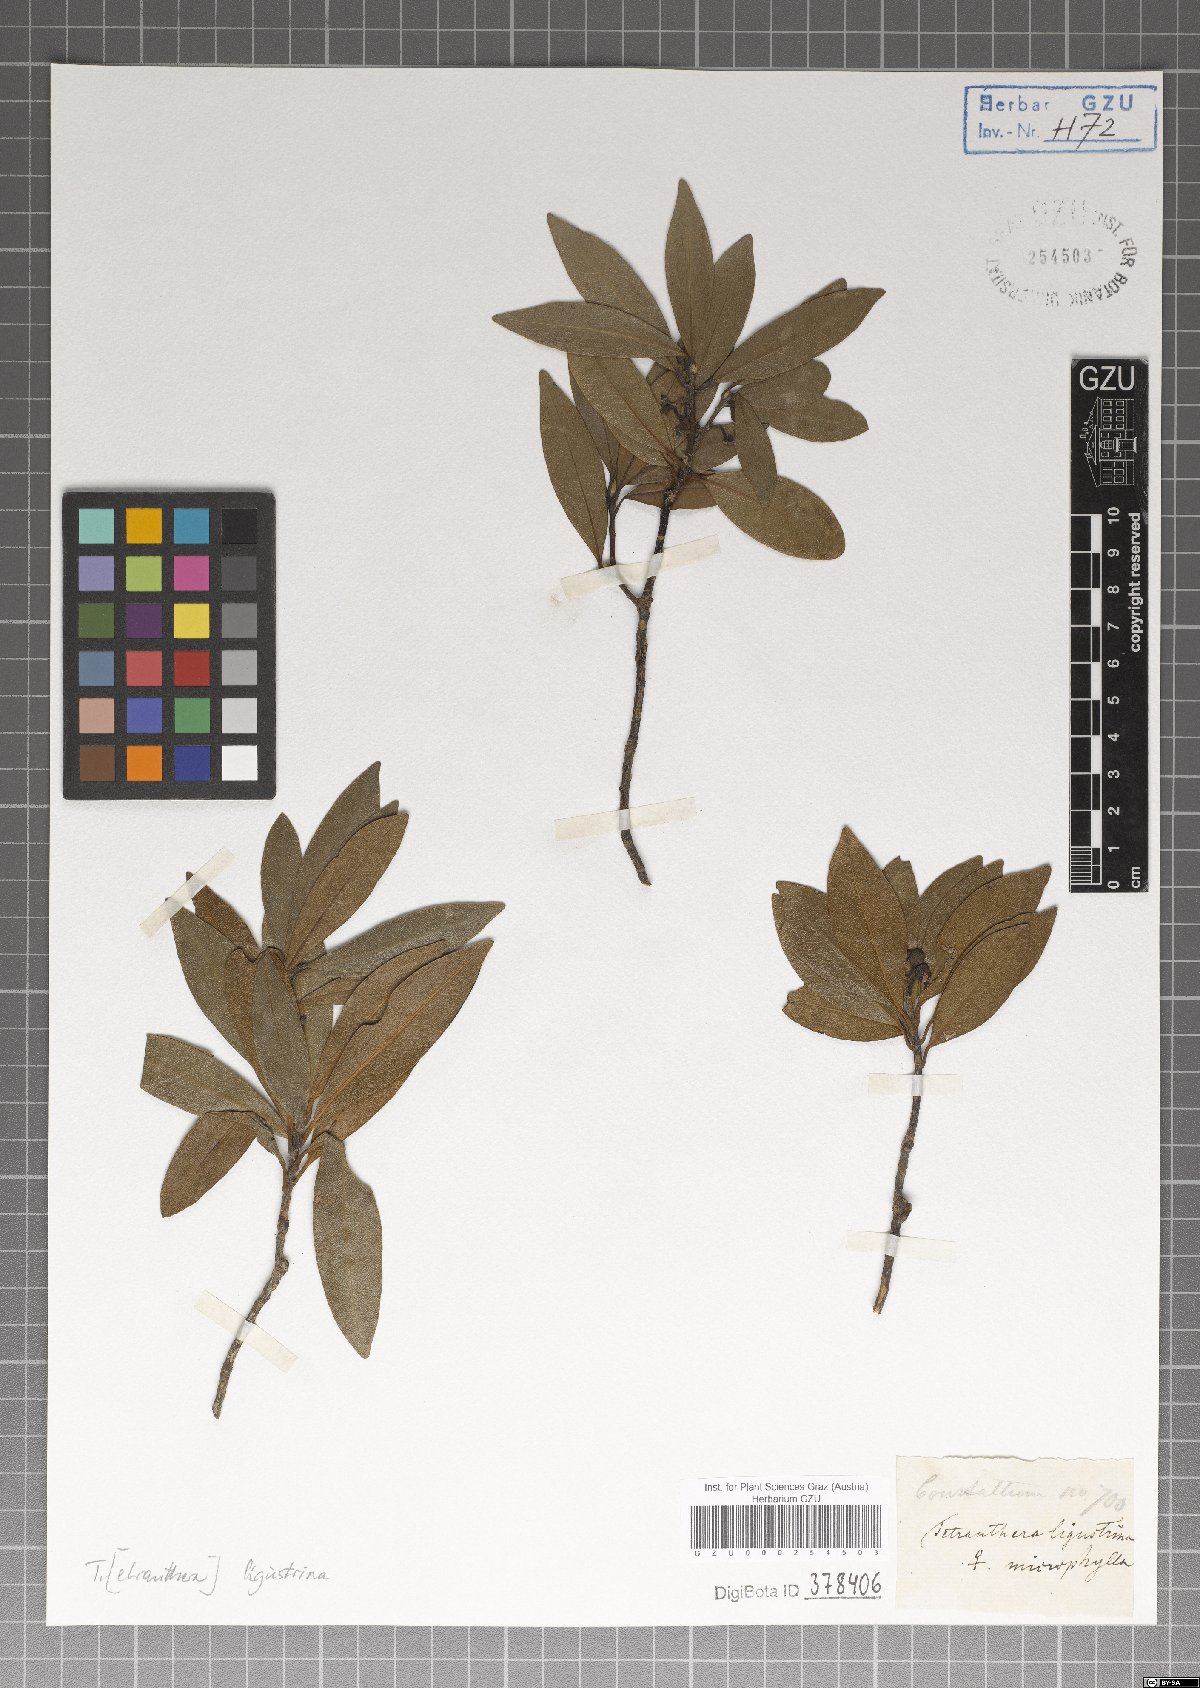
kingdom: Plantae
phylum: Tracheophyta
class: Magnoliopsida
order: Laurales
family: Lauraceae
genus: Litsea
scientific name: Litsea ligustrina
